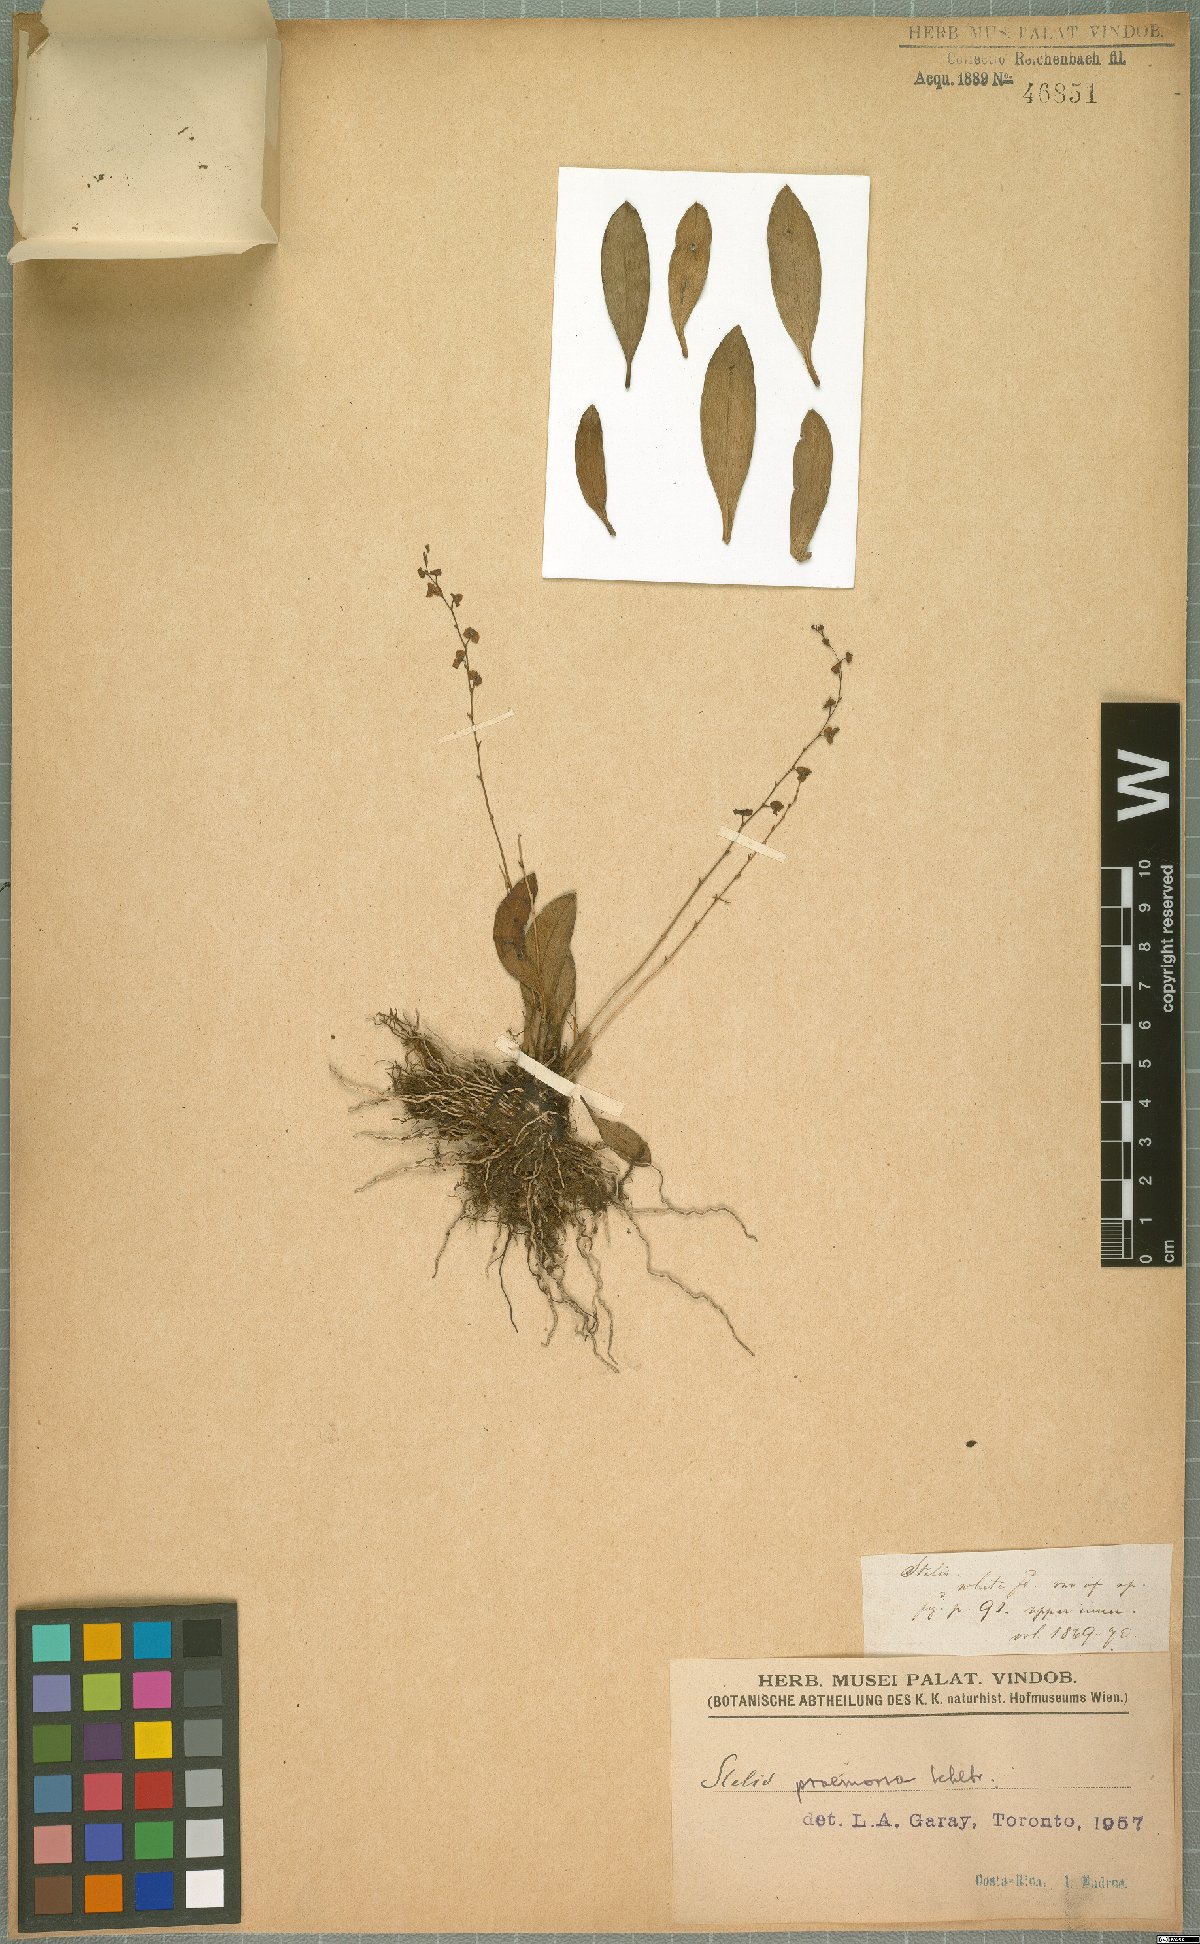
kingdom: Plantae
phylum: Tracheophyta
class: Liliopsida
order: Asparagales
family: Orchidaceae
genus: Stelis
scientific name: Stelis praemorsa
